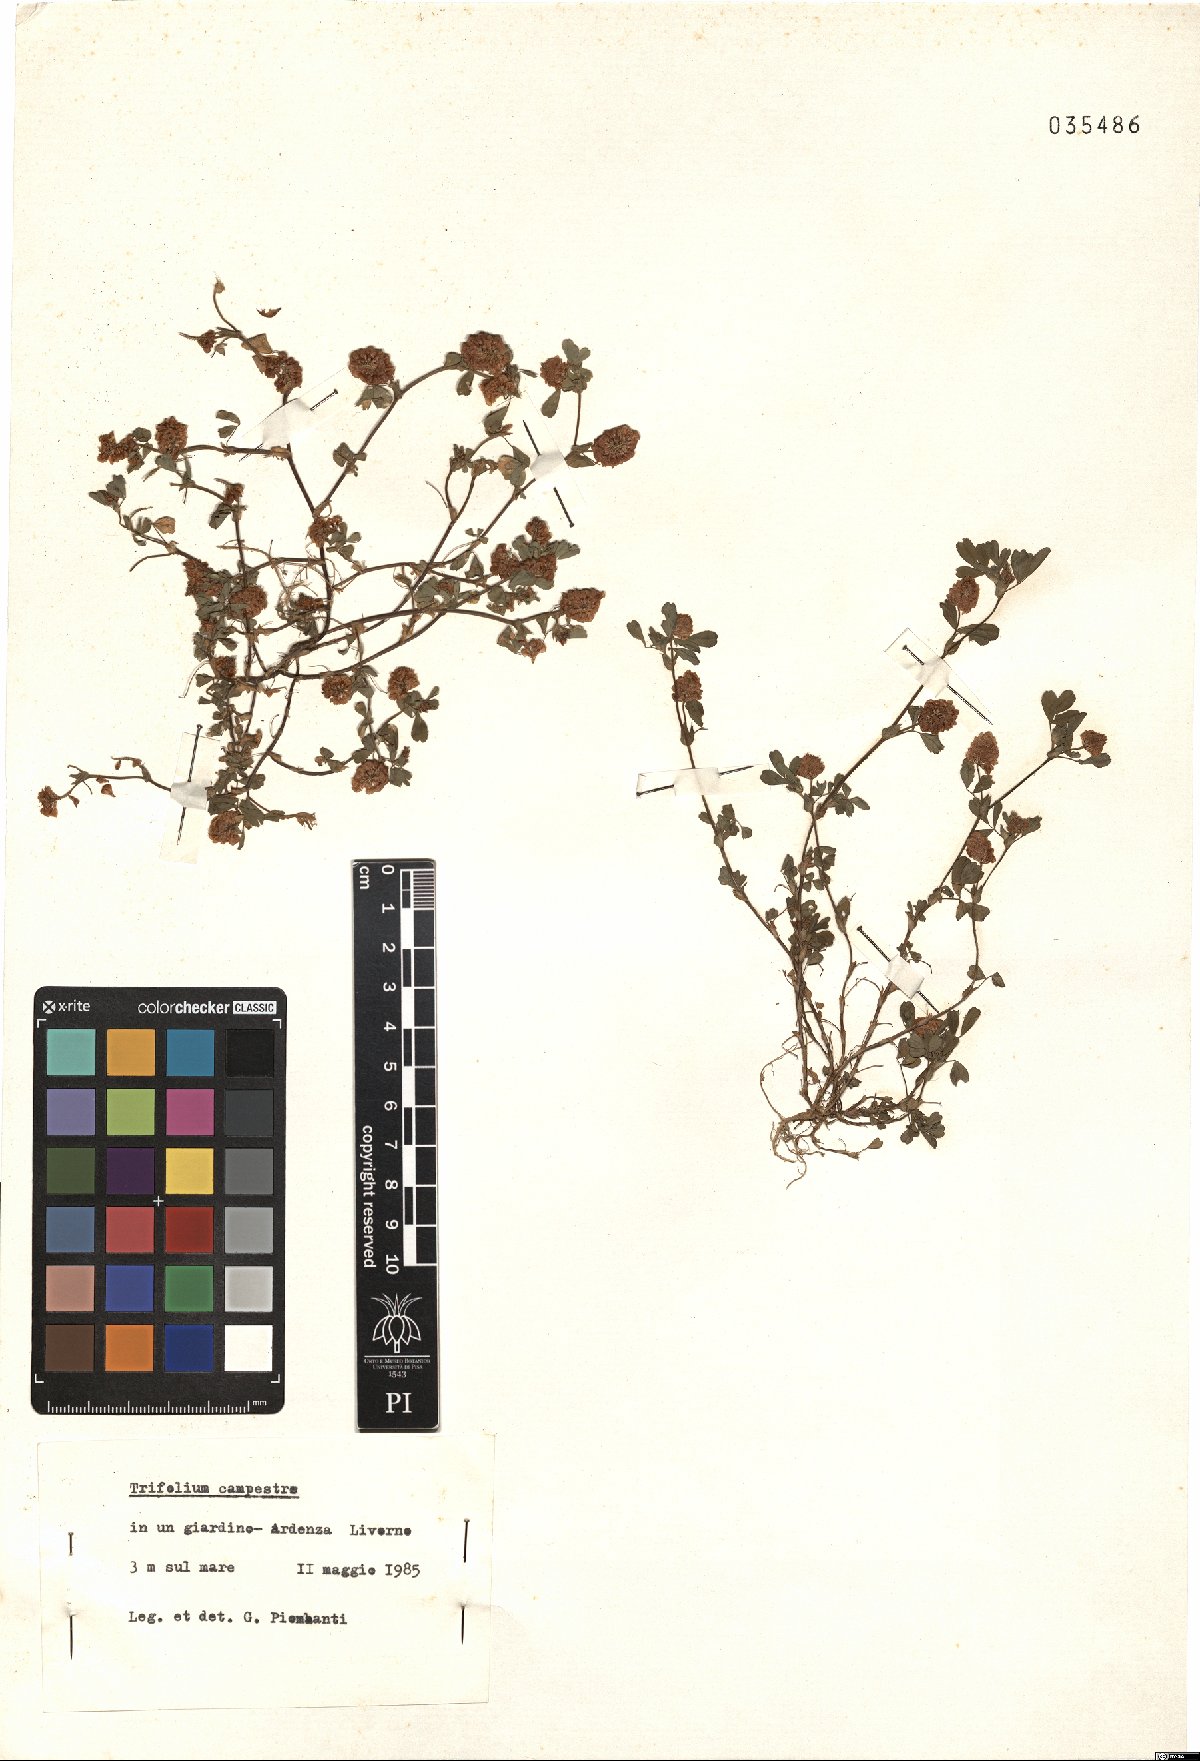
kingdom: Plantae
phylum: Tracheophyta
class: Magnoliopsida
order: Fabales
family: Fabaceae
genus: Trifolium
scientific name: Trifolium campestre
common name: Field clover
